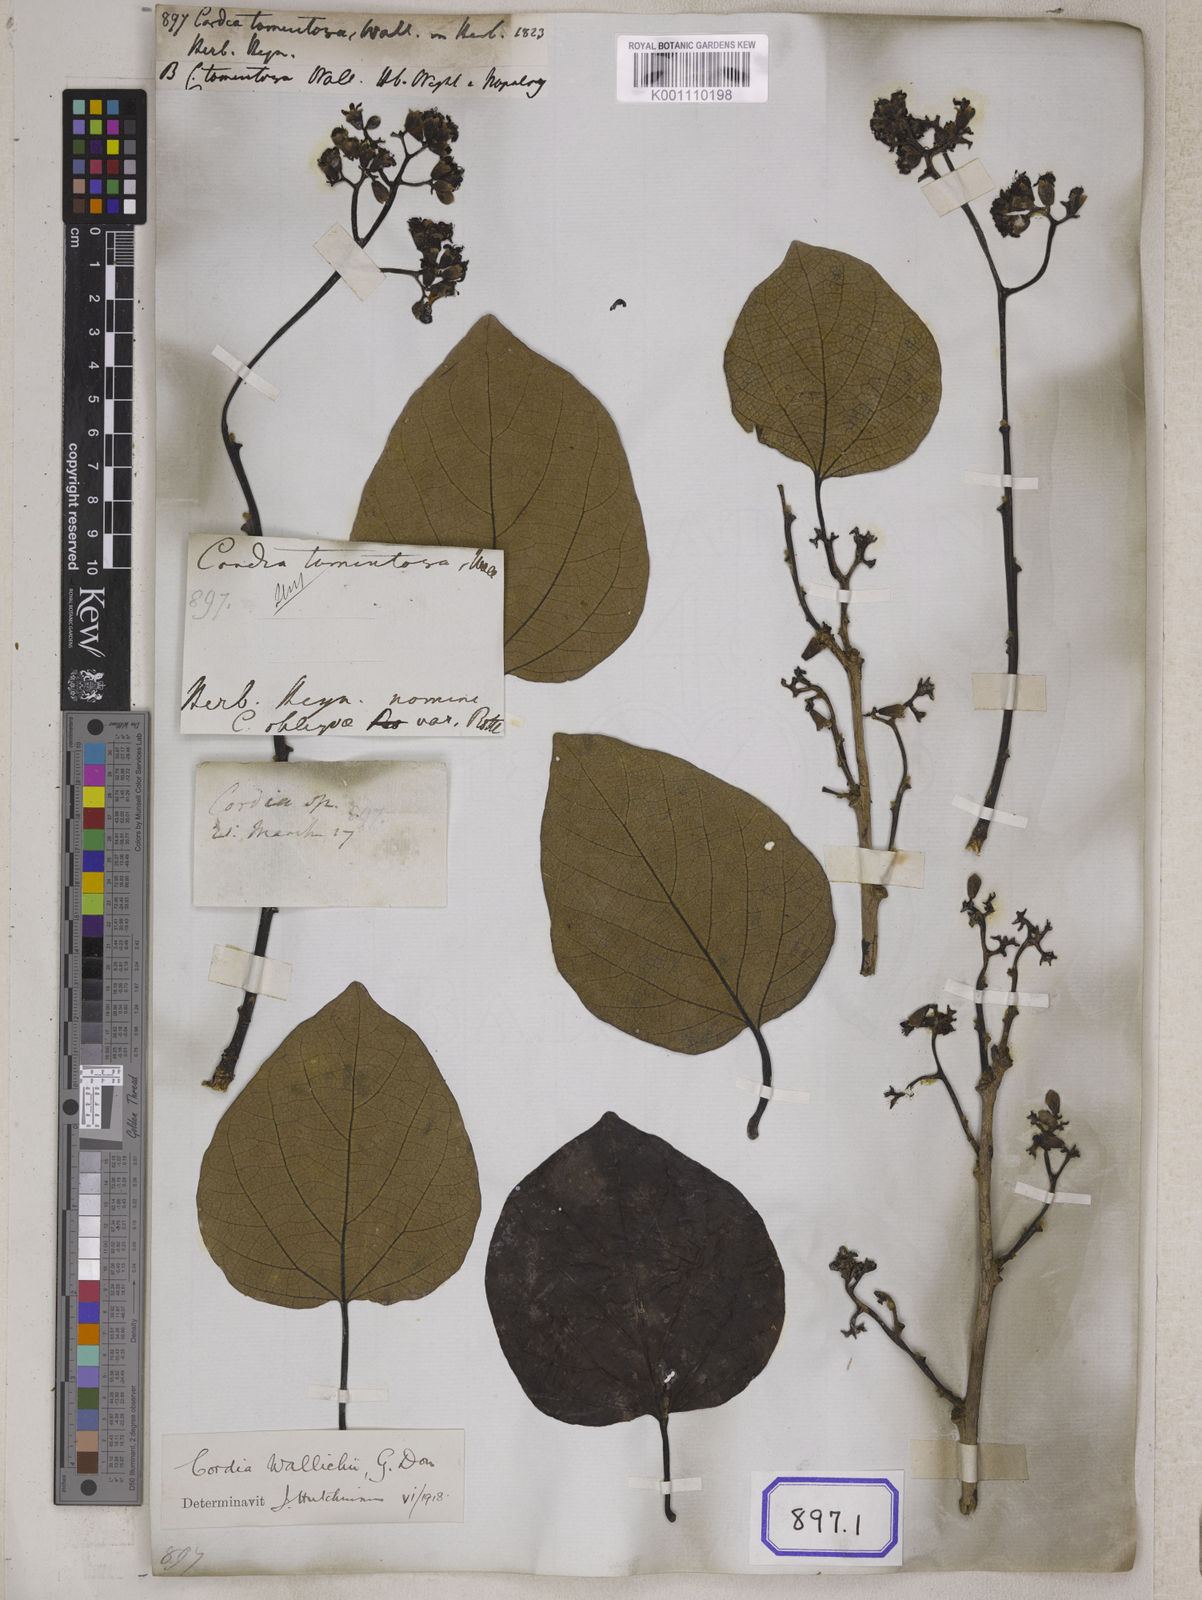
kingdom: Plantae
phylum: Tracheophyta
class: Magnoliopsida
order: Boraginales
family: Cordiaceae
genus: Cordia
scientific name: Cordia dichotoma
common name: Fragrant manjack
